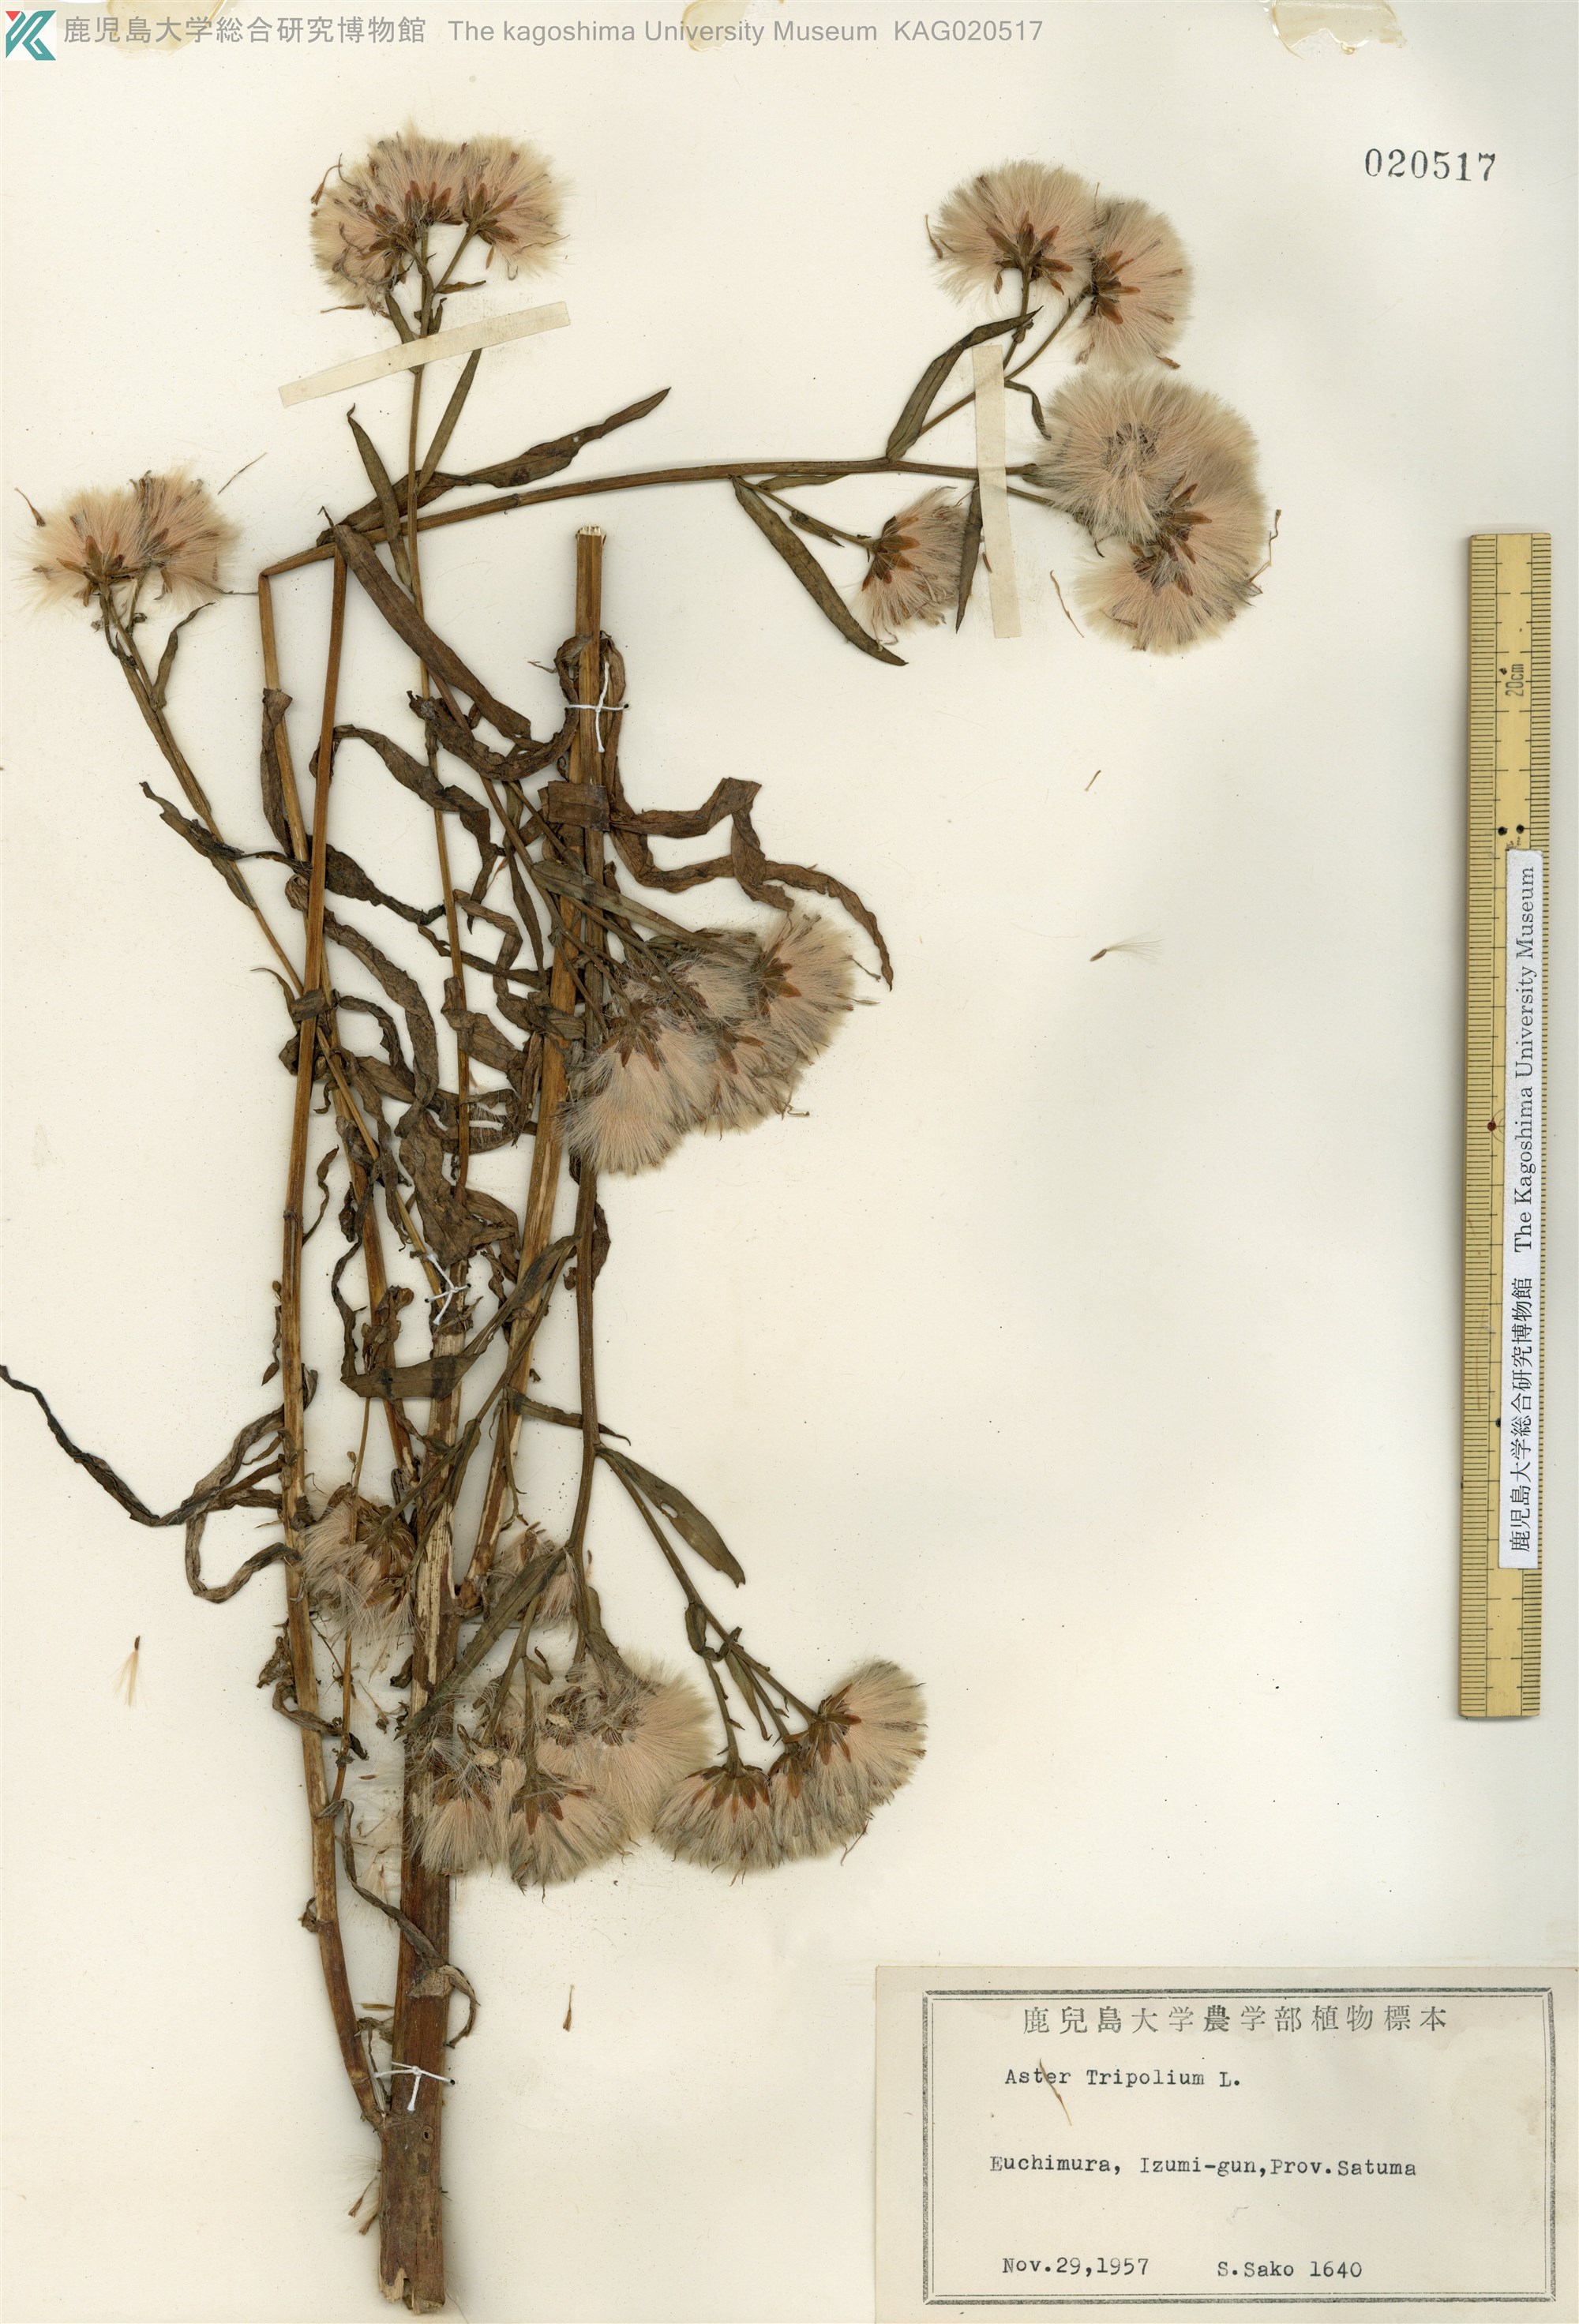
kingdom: Plantae
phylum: Tracheophyta
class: Magnoliopsida
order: Asterales
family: Asteraceae
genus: Tripolium
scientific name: Tripolium pannonicum
